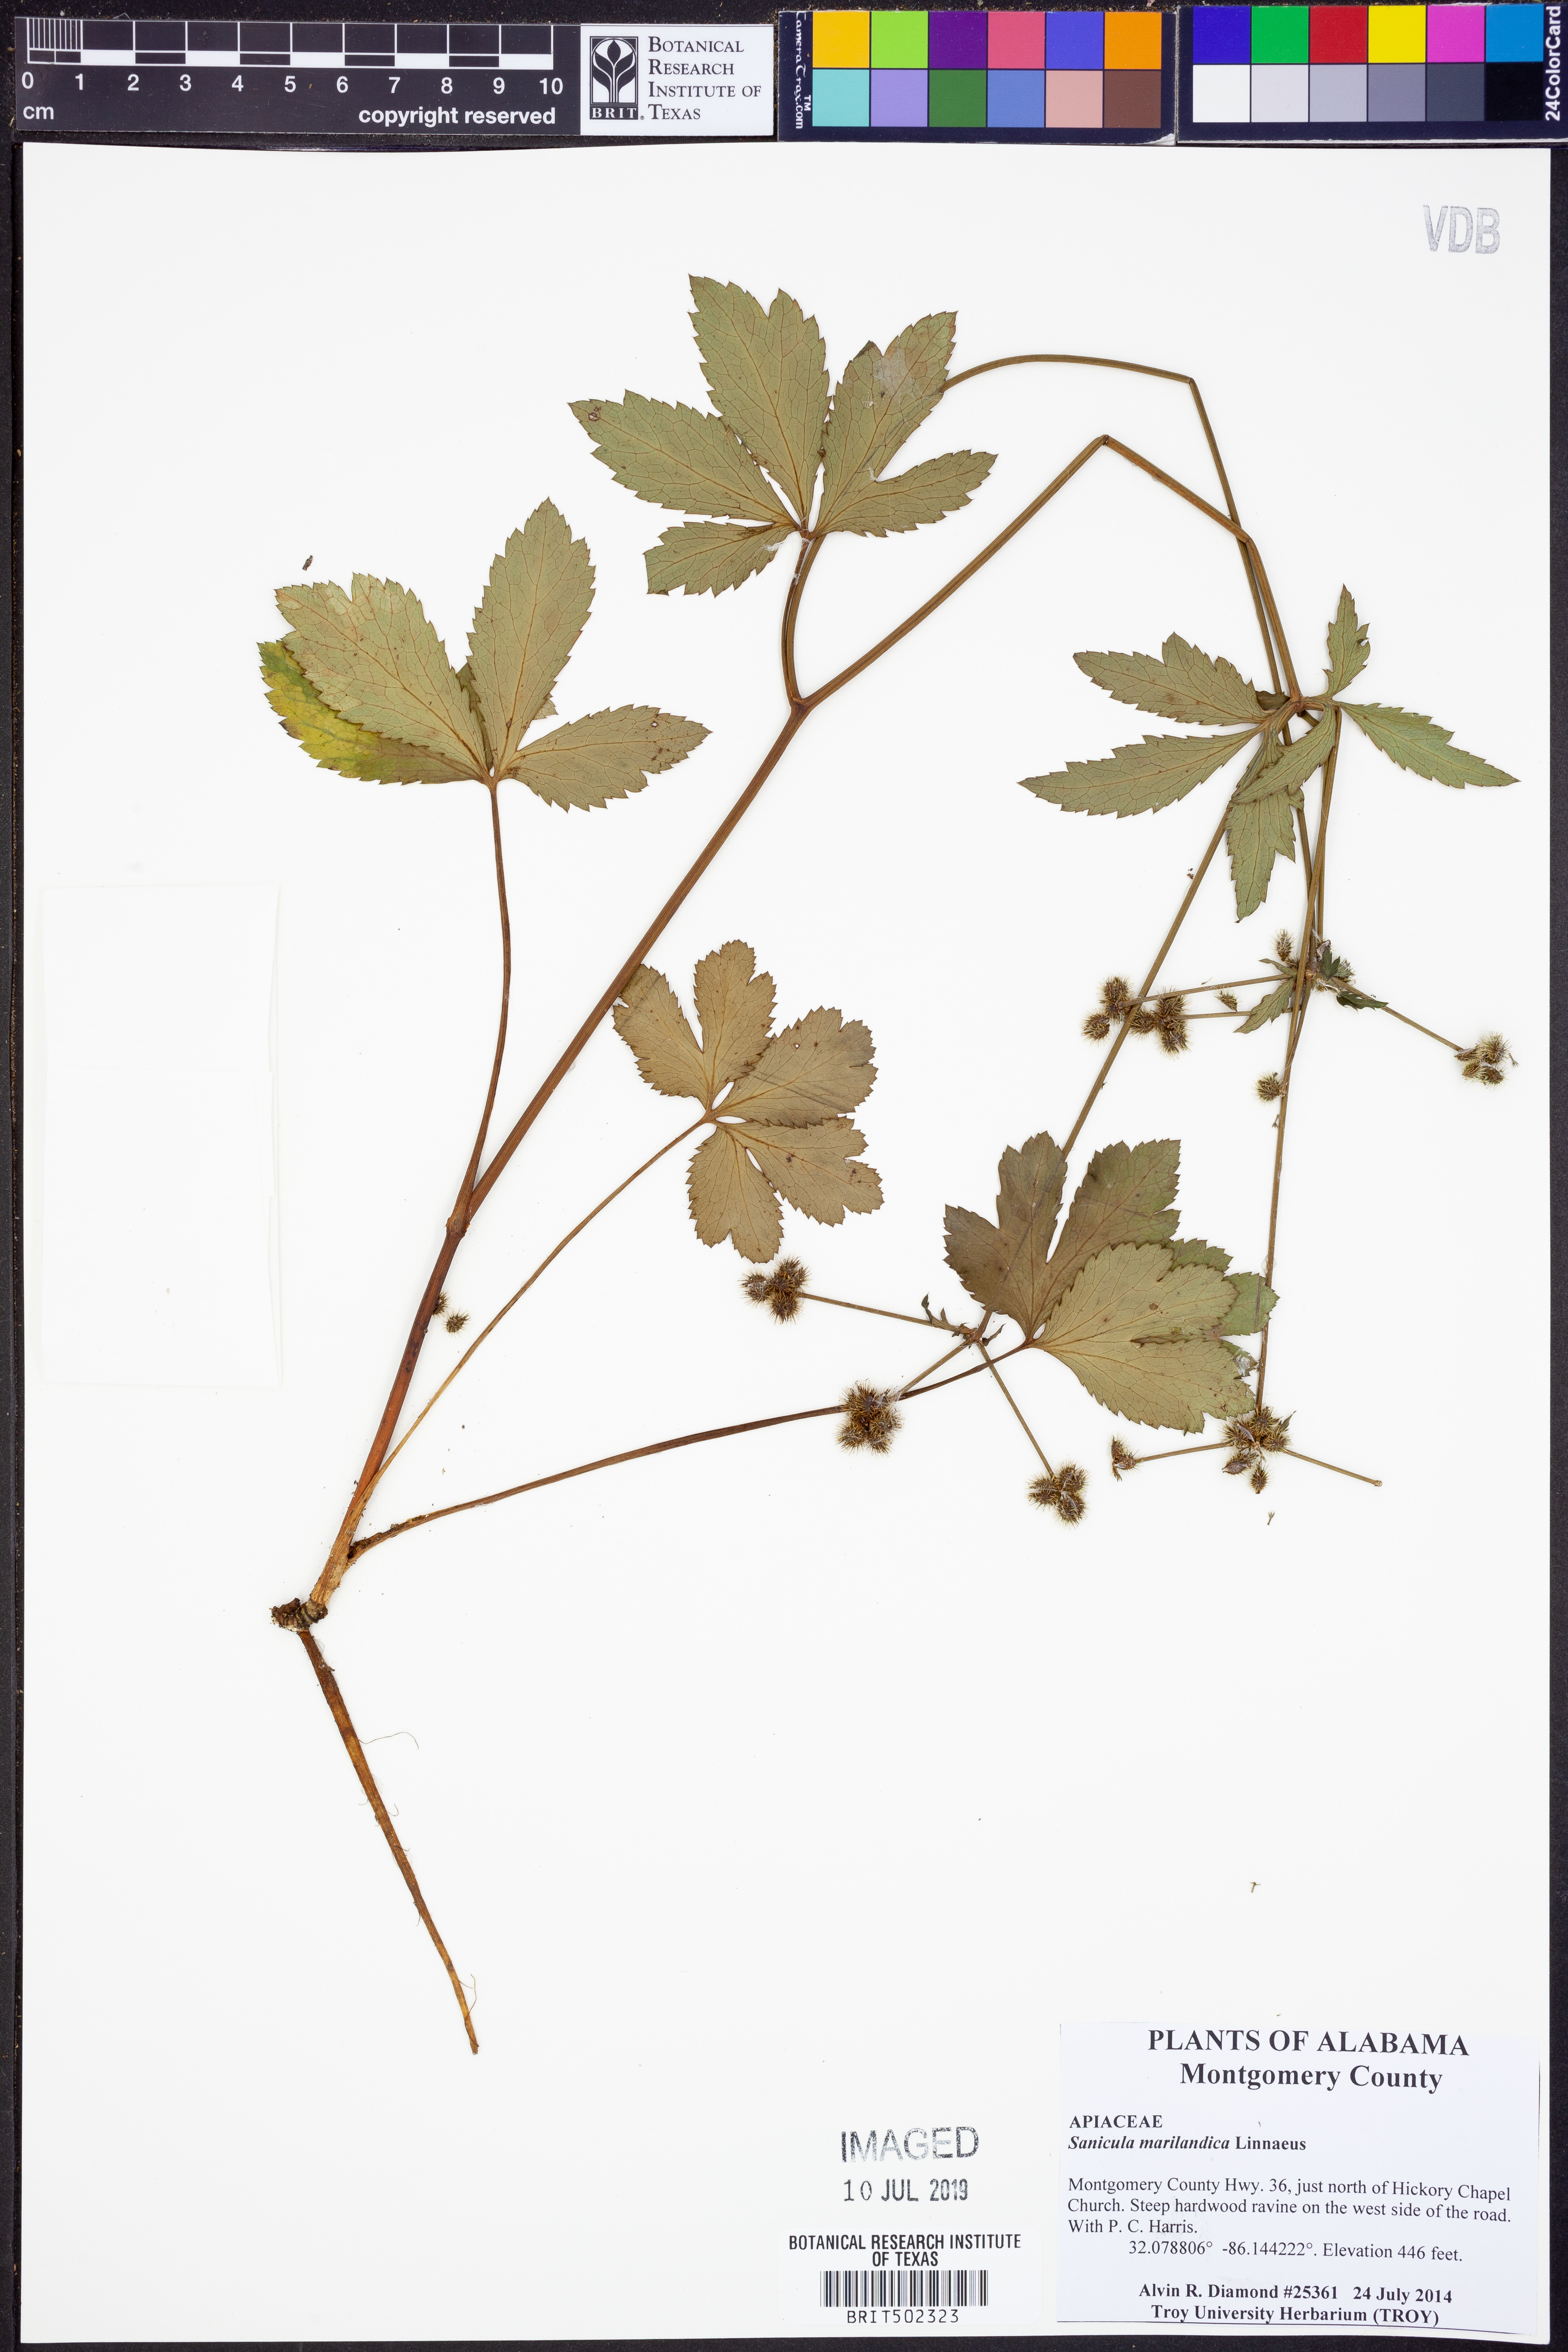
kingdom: Plantae
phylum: Tracheophyta
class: Magnoliopsida
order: Apiales
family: Apiaceae
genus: Sanicula
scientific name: Sanicula marilandica
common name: Black snakeroot
